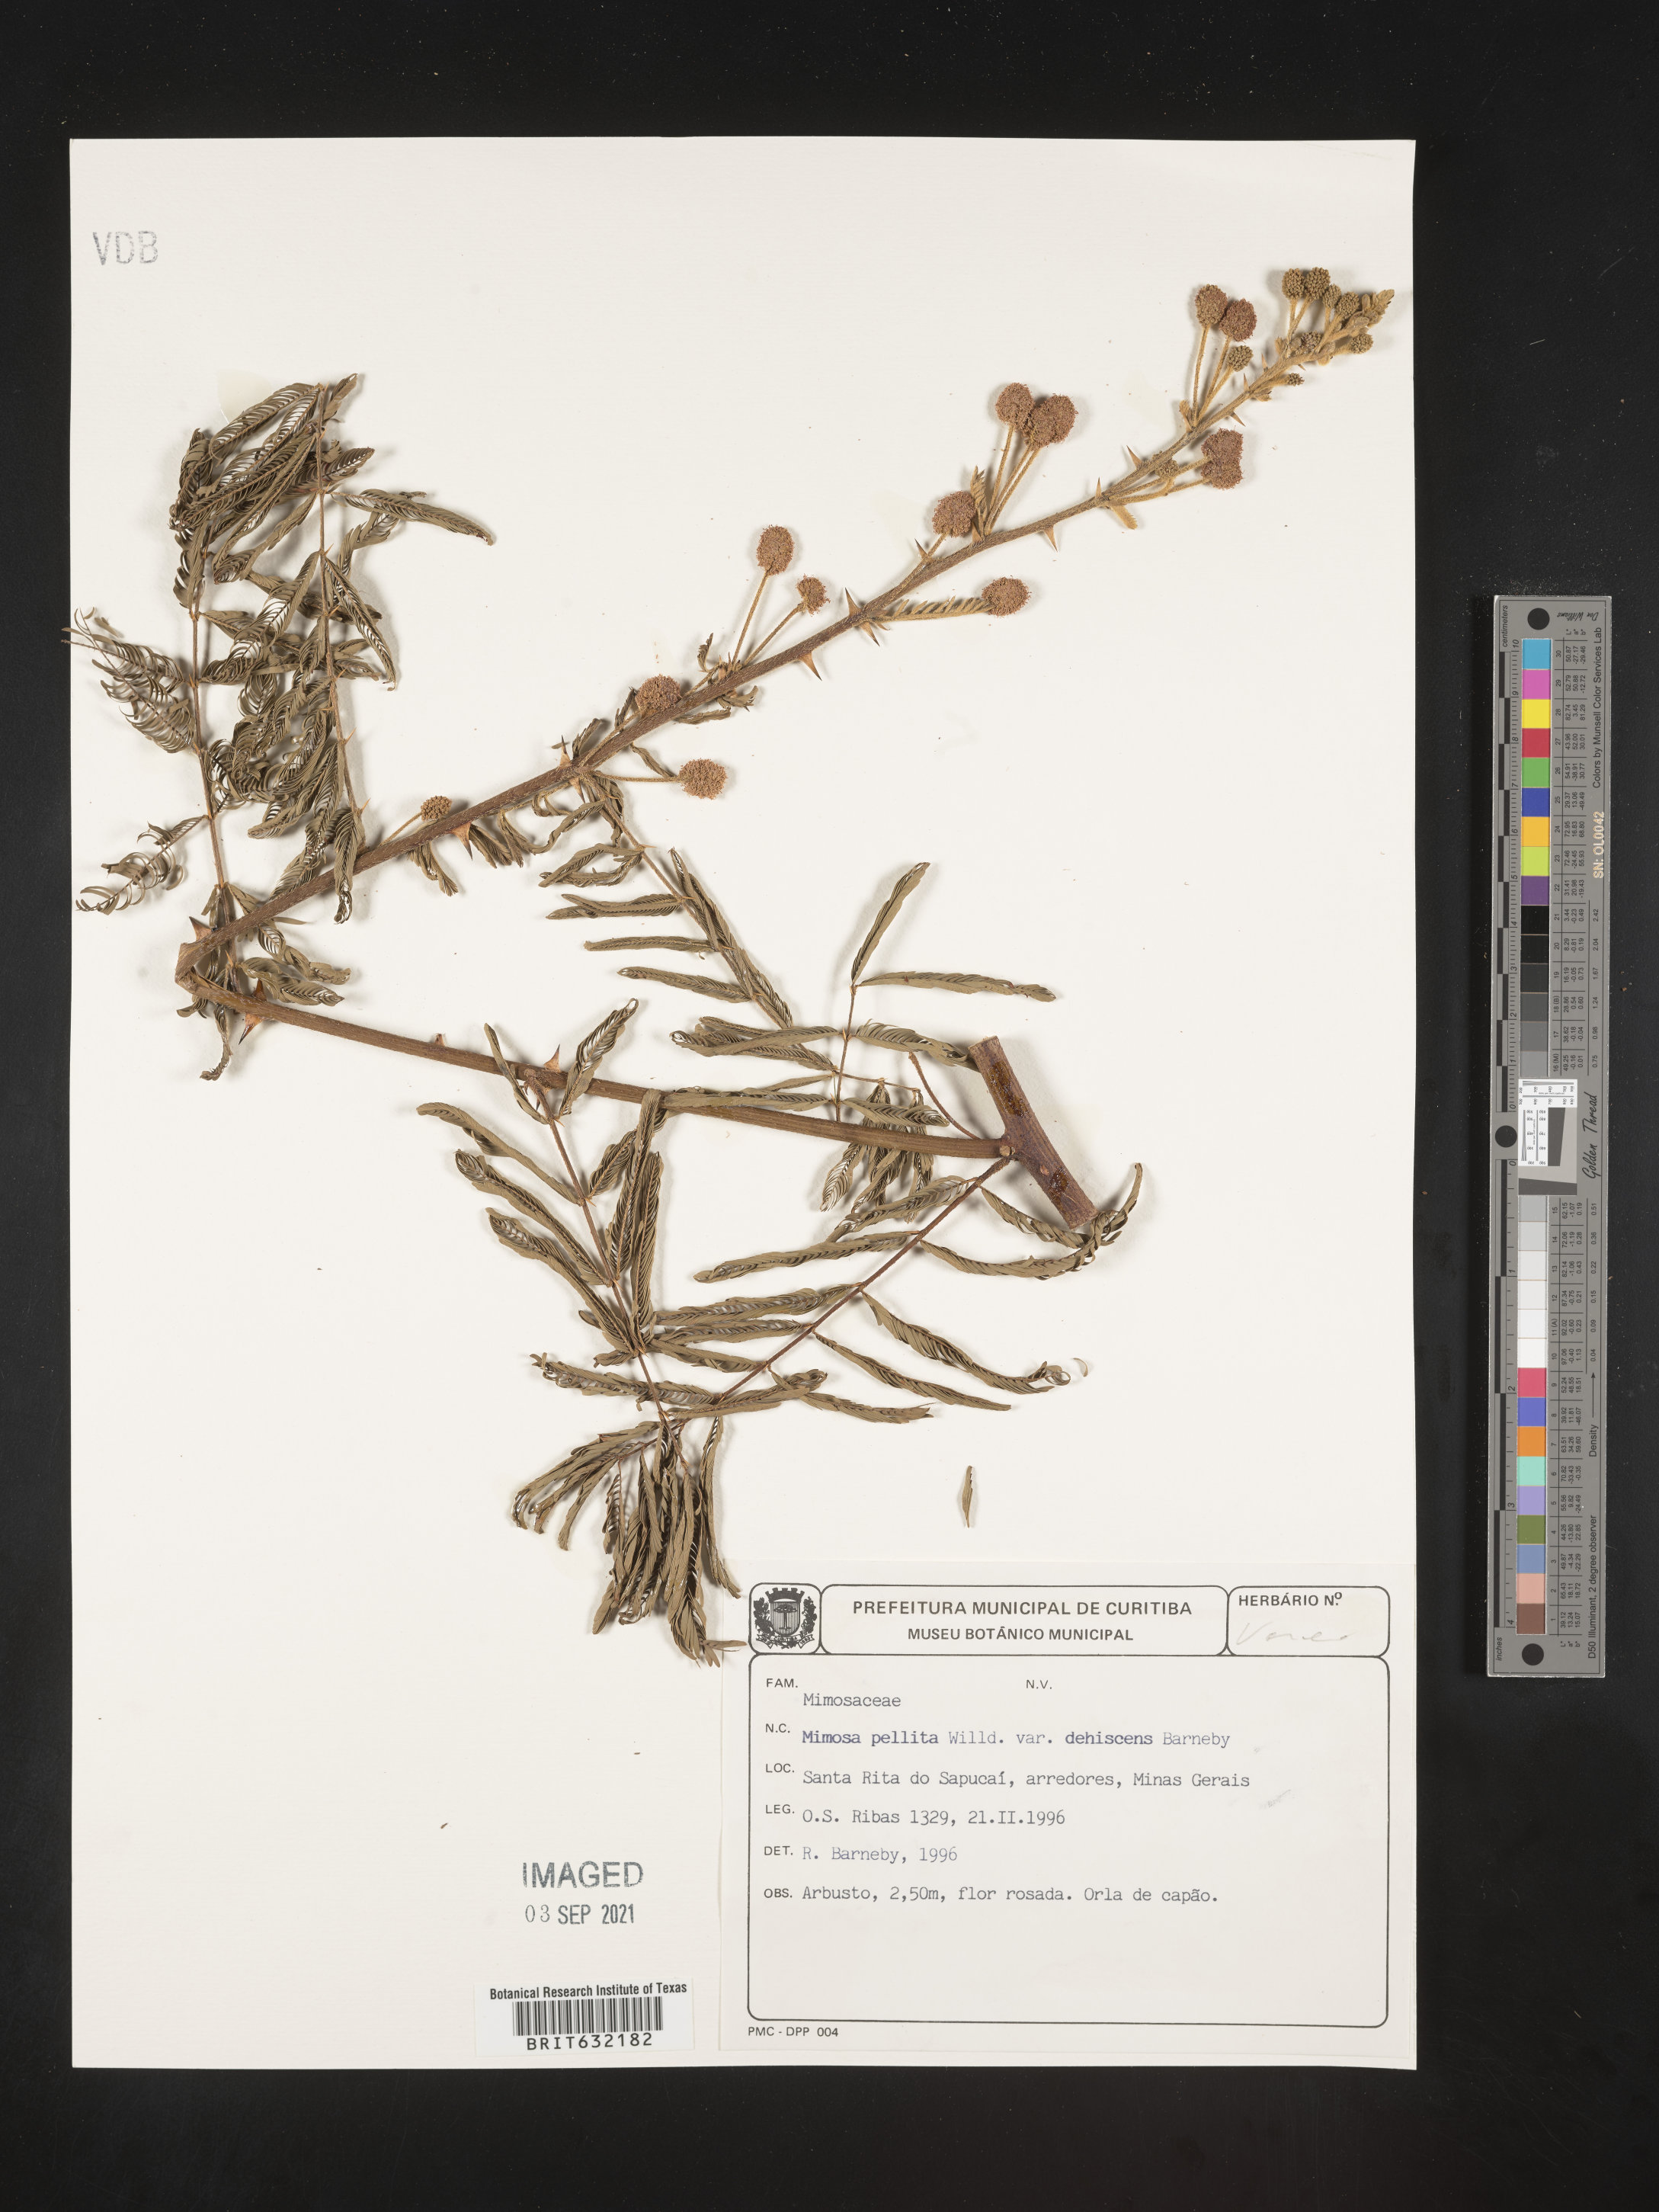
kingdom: Plantae
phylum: Tracheophyta
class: Magnoliopsida
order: Fabales
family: Fabaceae
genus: Mimosa
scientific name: Mimosa
